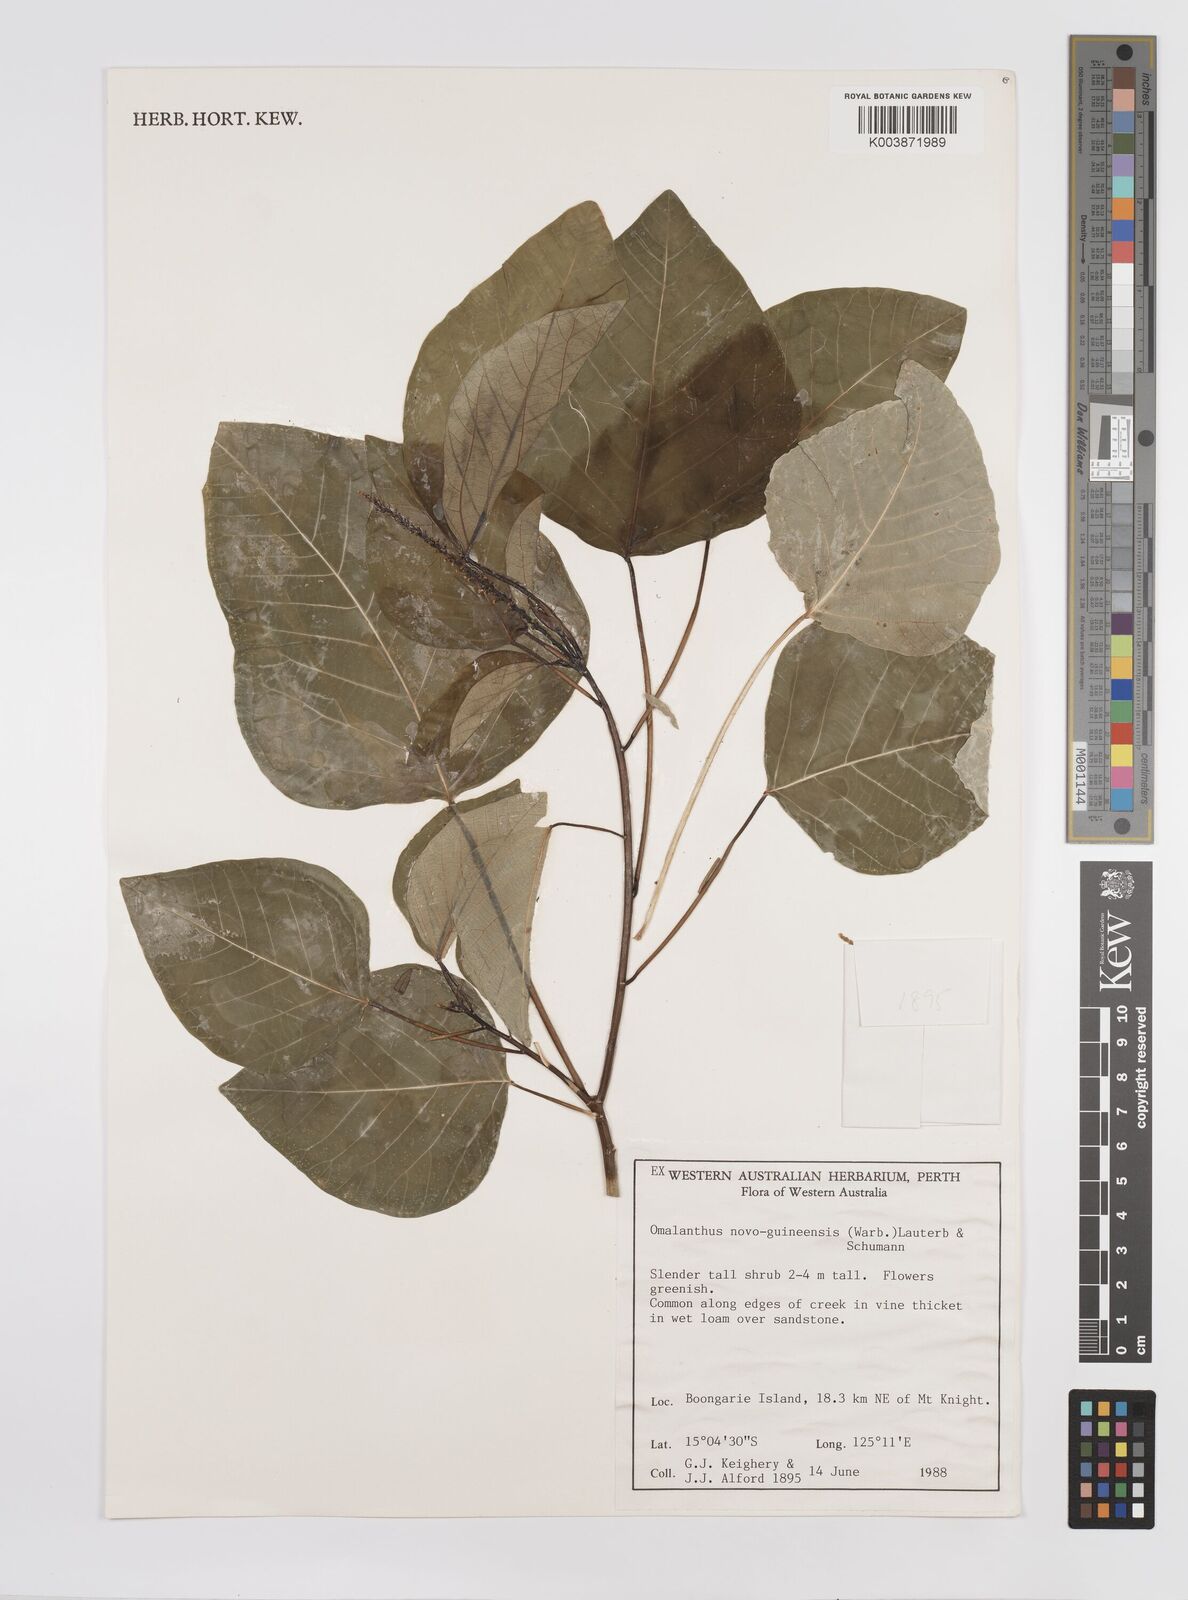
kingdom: Plantae
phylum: Tracheophyta
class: Magnoliopsida
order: Malpighiales
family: Euphorbiaceae
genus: Homalanthus
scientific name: Homalanthus novoguineensis
